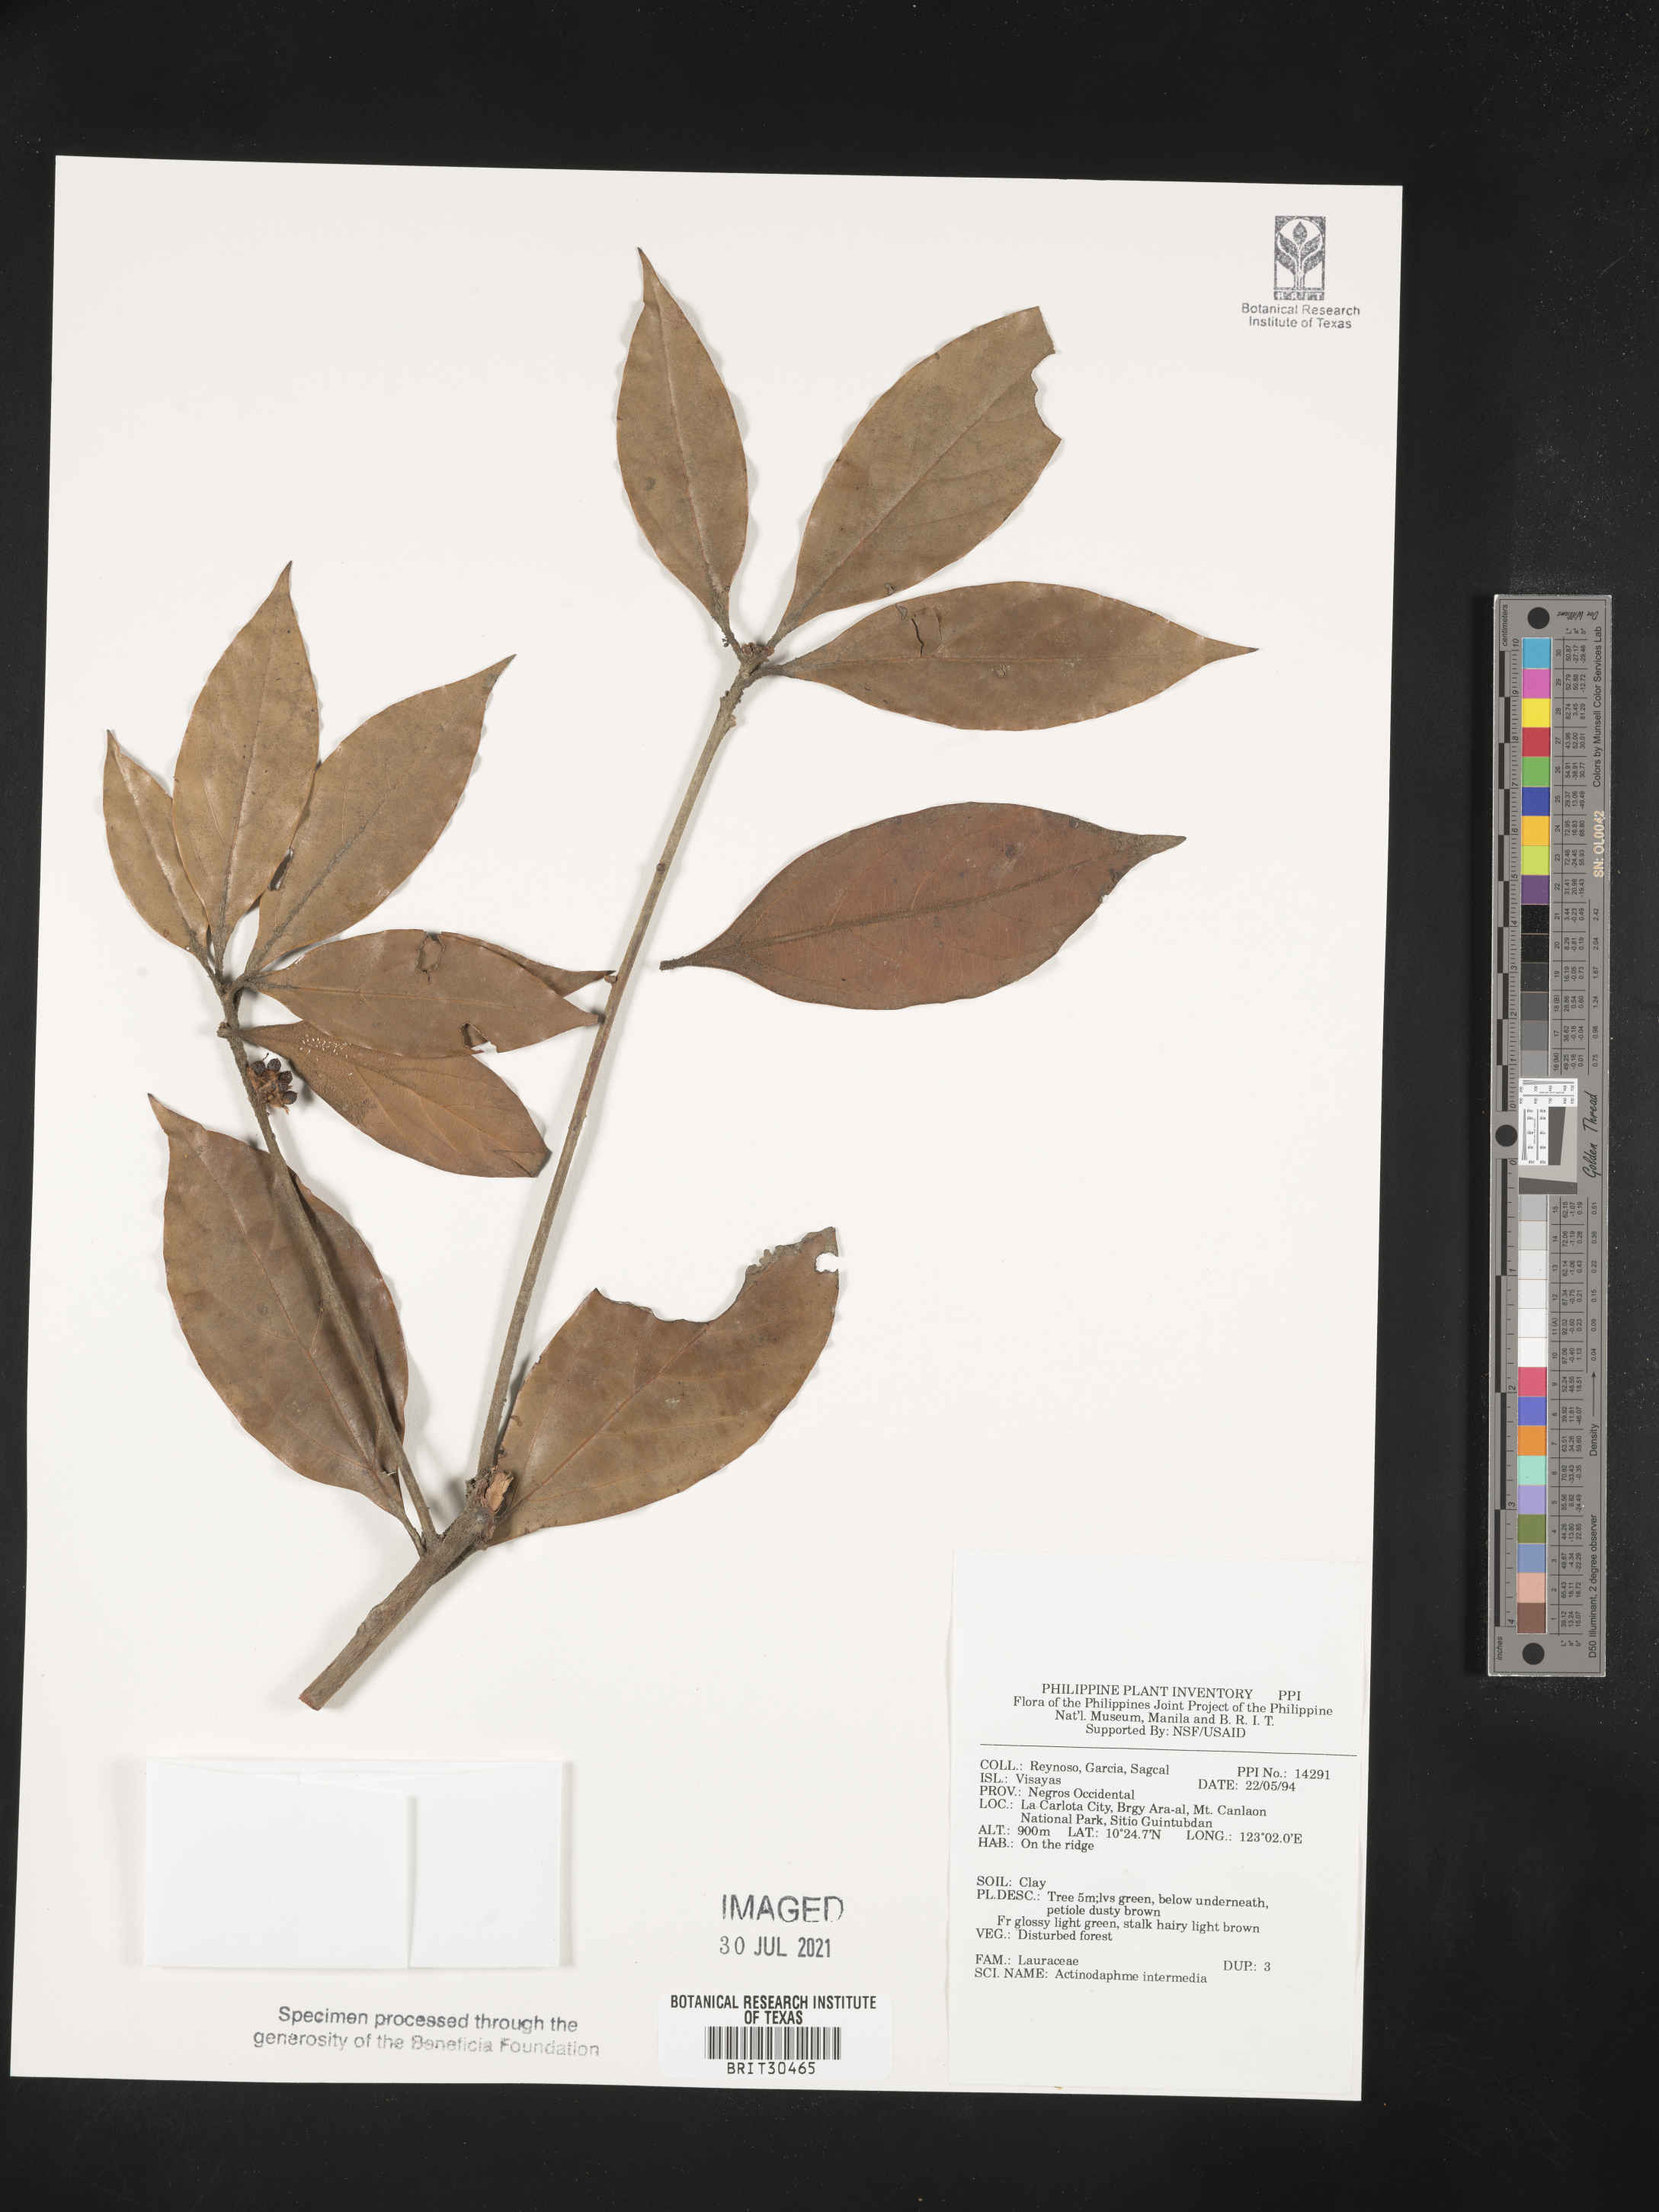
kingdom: Plantae
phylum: Tracheophyta
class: Magnoliopsida
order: Laurales
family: Lauraceae
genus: Actinodaphne
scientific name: Actinodaphne intermedia
